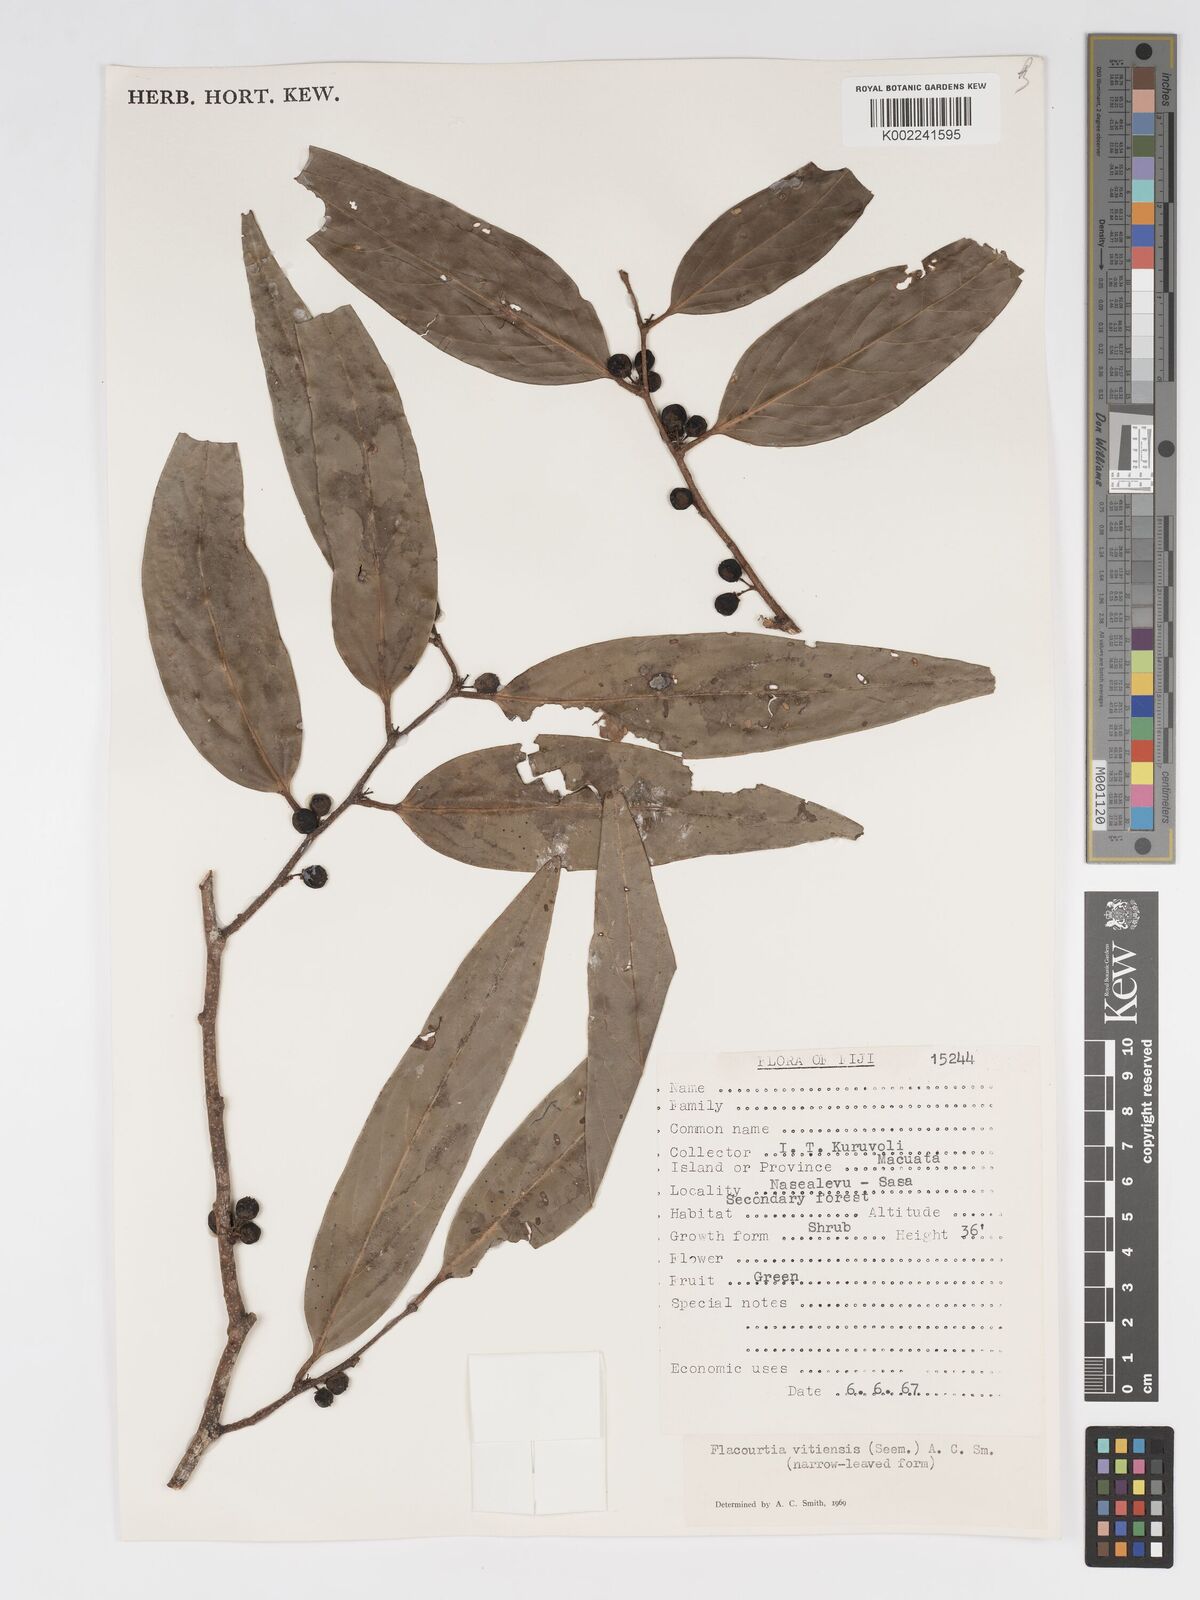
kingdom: Plantae
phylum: Tracheophyta
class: Magnoliopsida
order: Malpighiales
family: Salicaceae
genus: Flacourtia
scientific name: Flacourtia vitiensis
